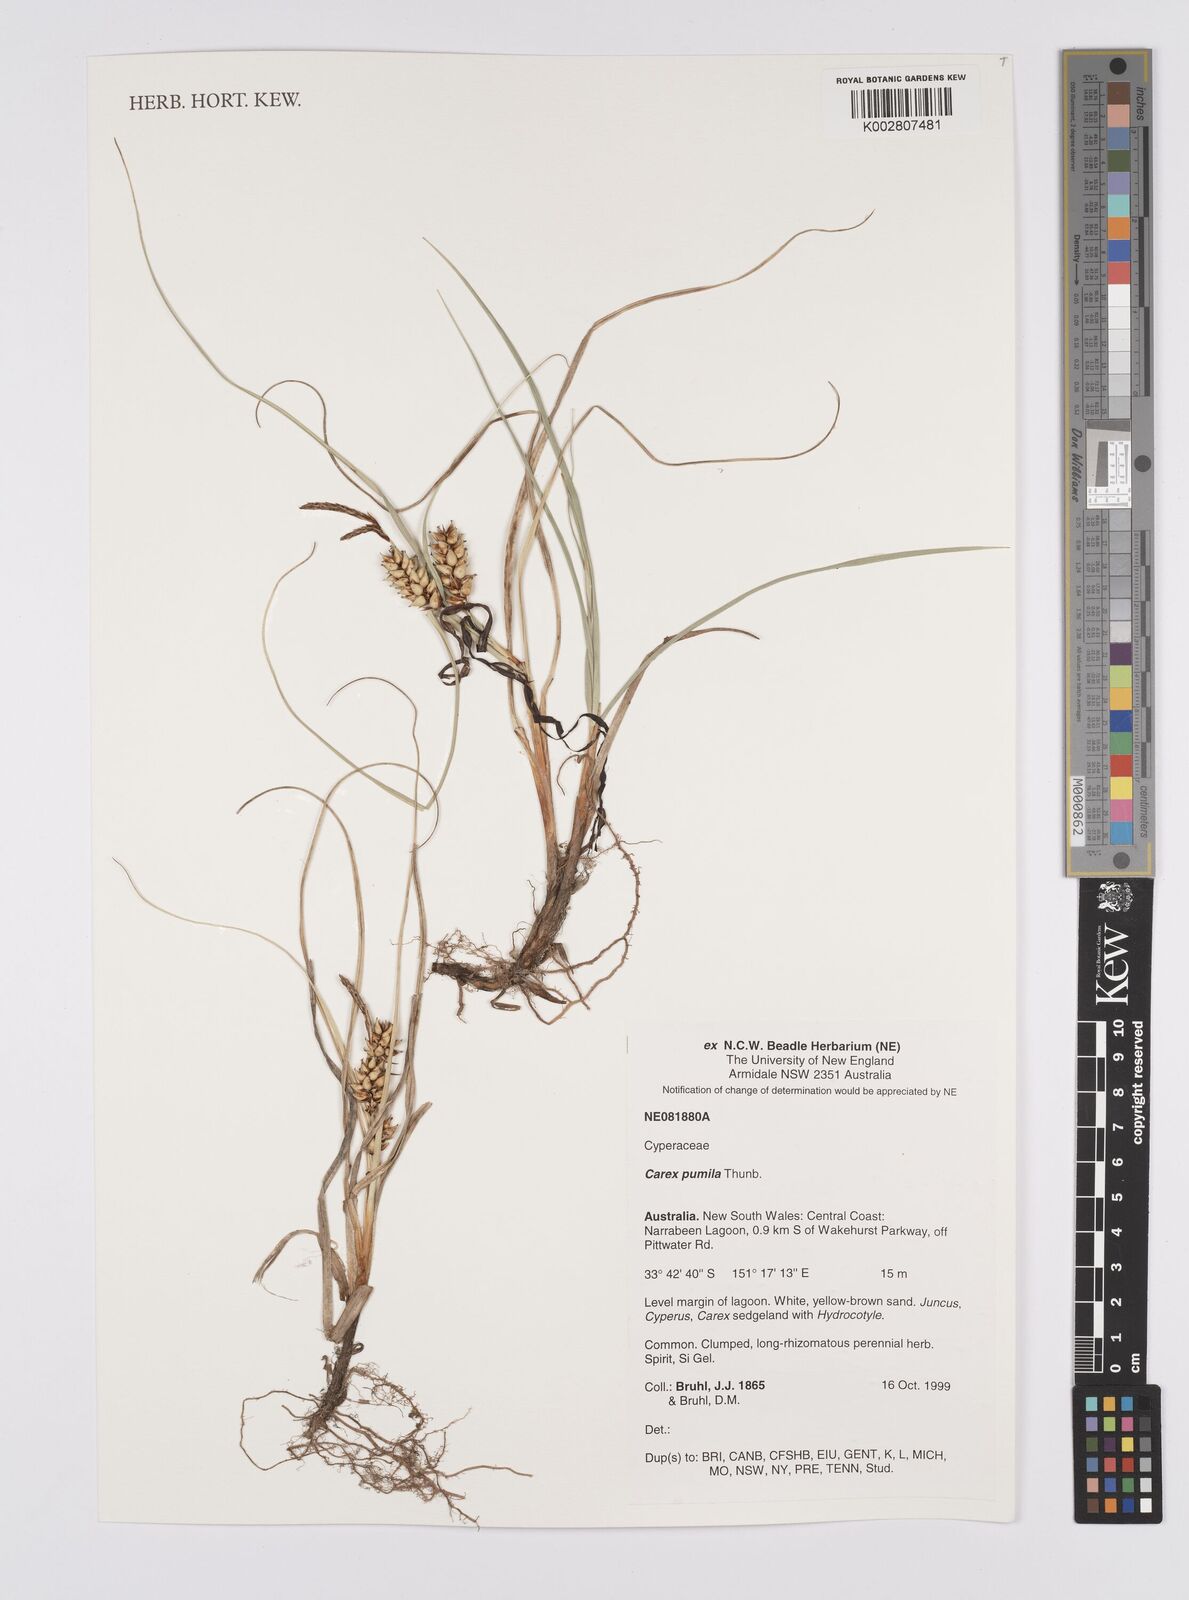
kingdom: Plantae
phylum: Tracheophyta
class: Liliopsida
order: Poales
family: Cyperaceae
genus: Carex
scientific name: Carex pumila
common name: Dwarf sedge
